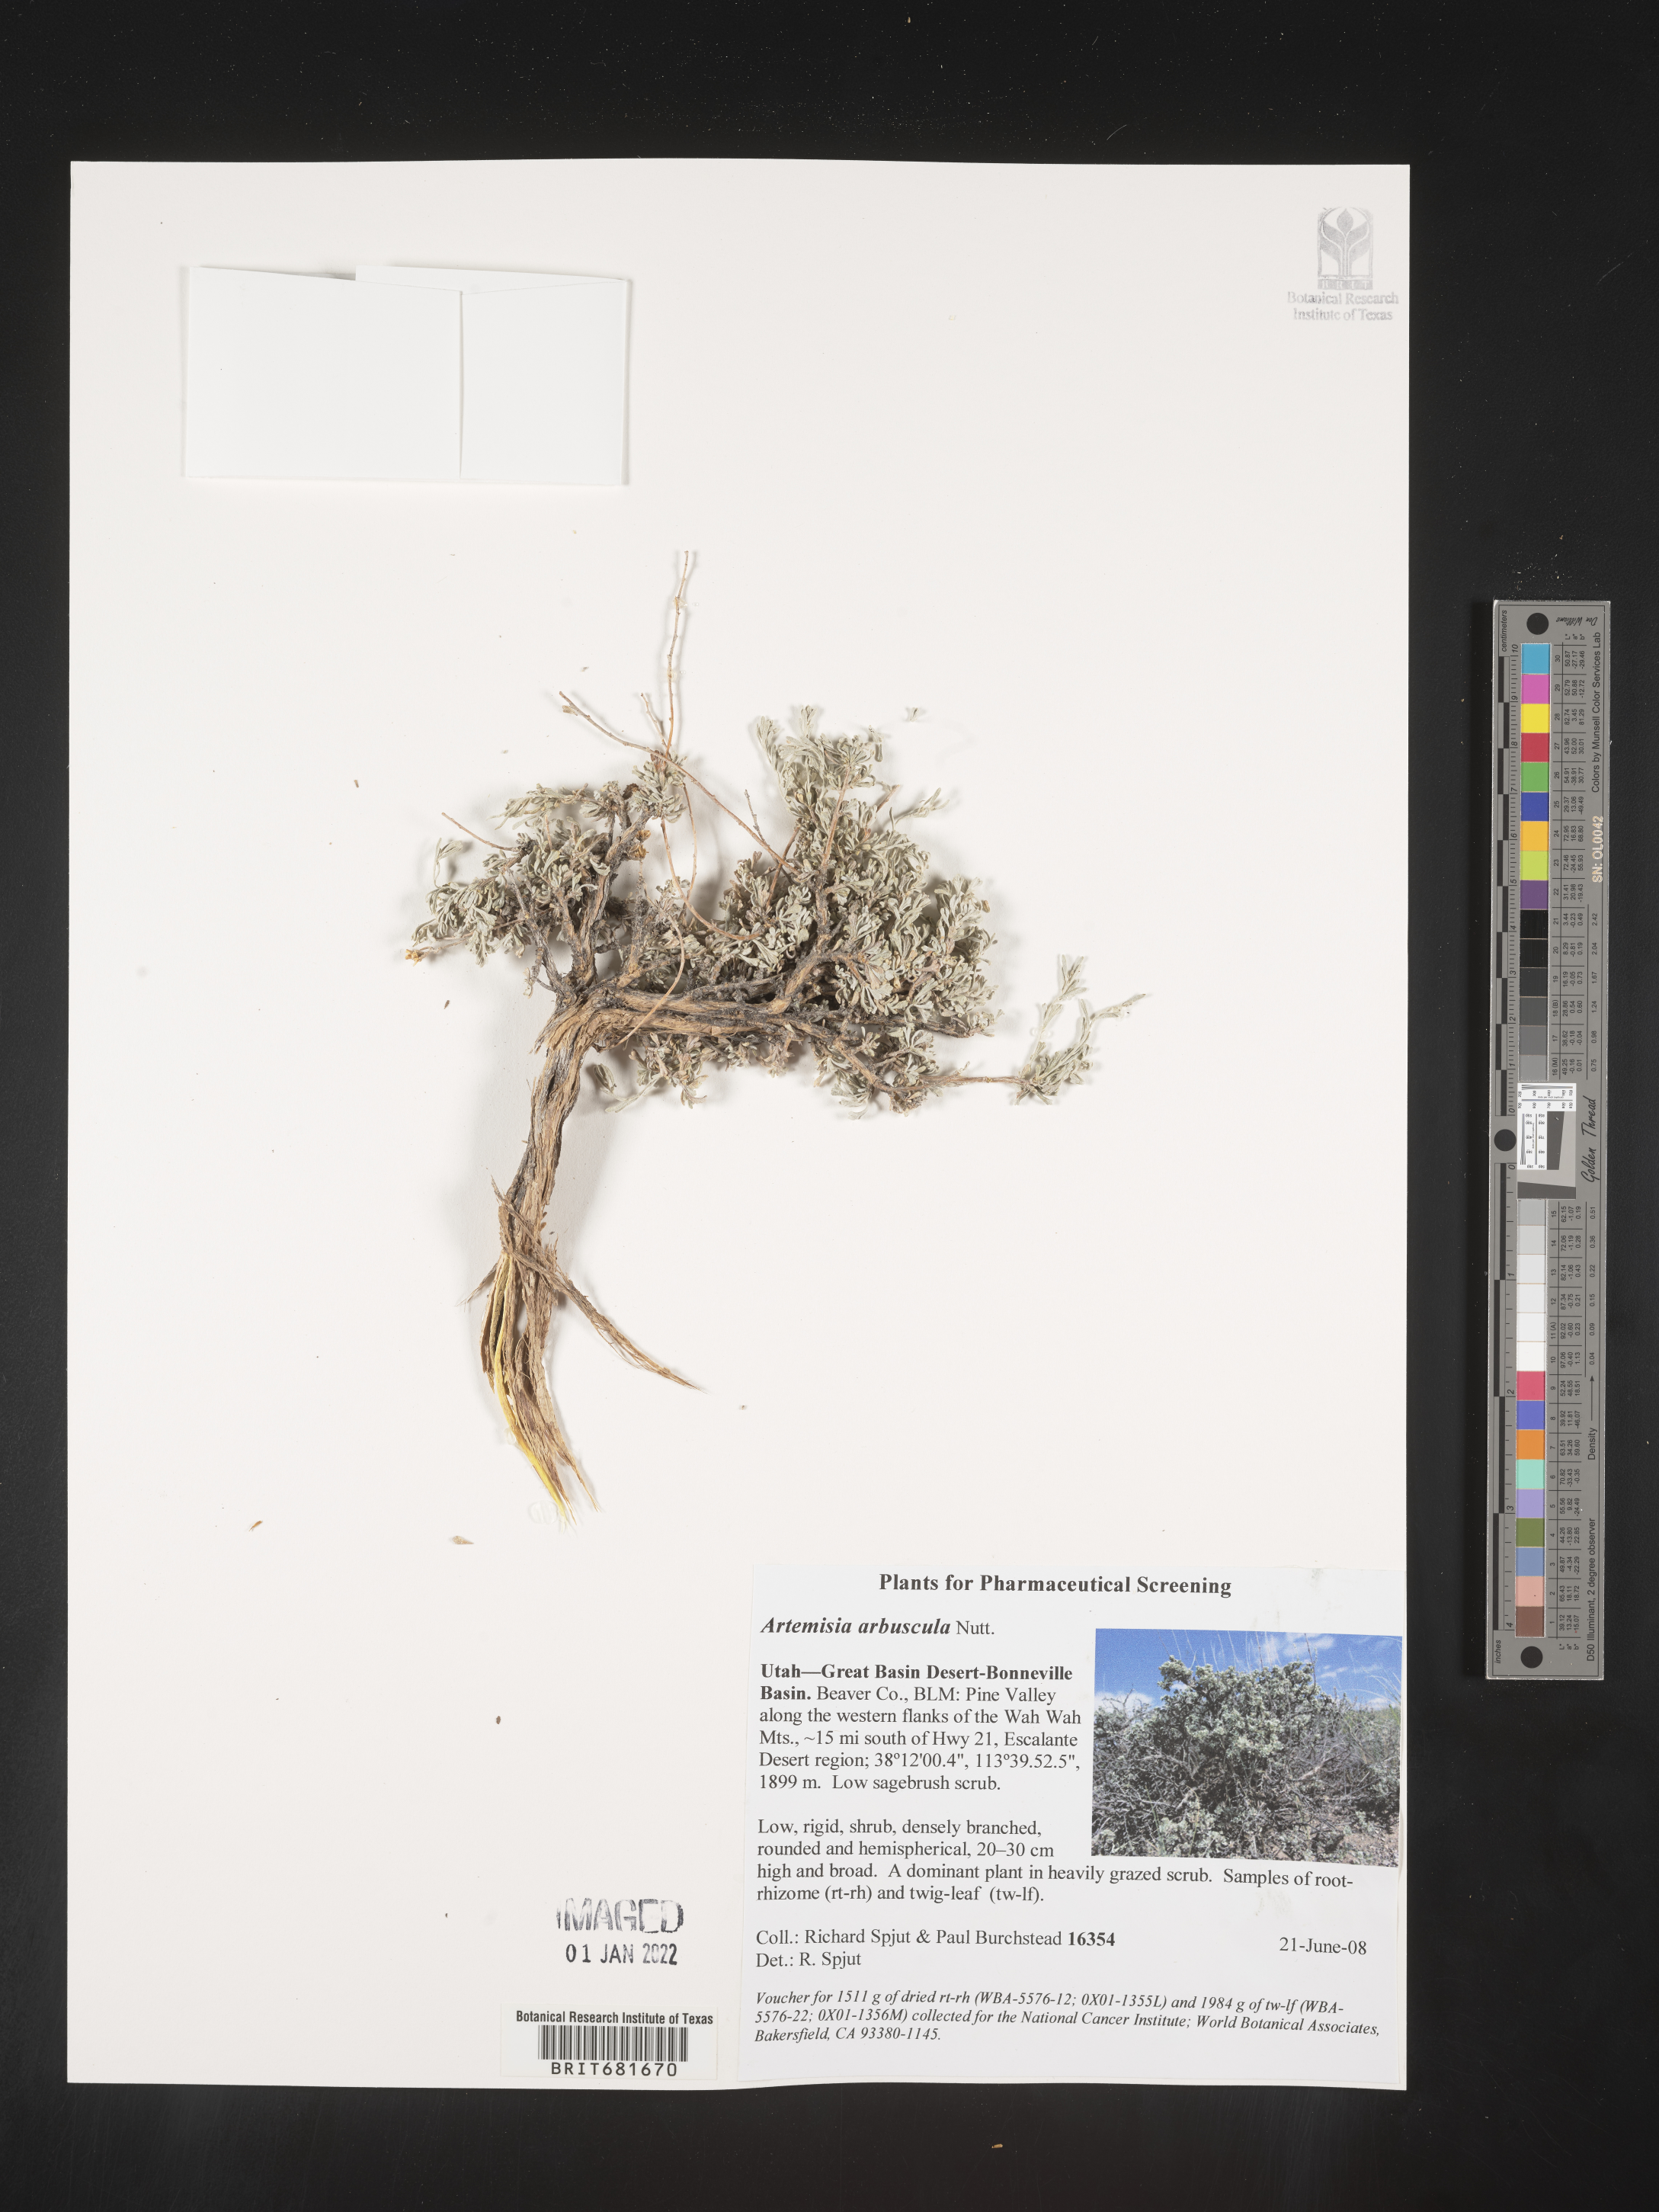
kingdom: Plantae
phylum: Tracheophyta
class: Magnoliopsida
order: Asterales
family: Asteraceae
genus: Artemisia
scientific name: Artemisia arbuscula
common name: Sagebrush
